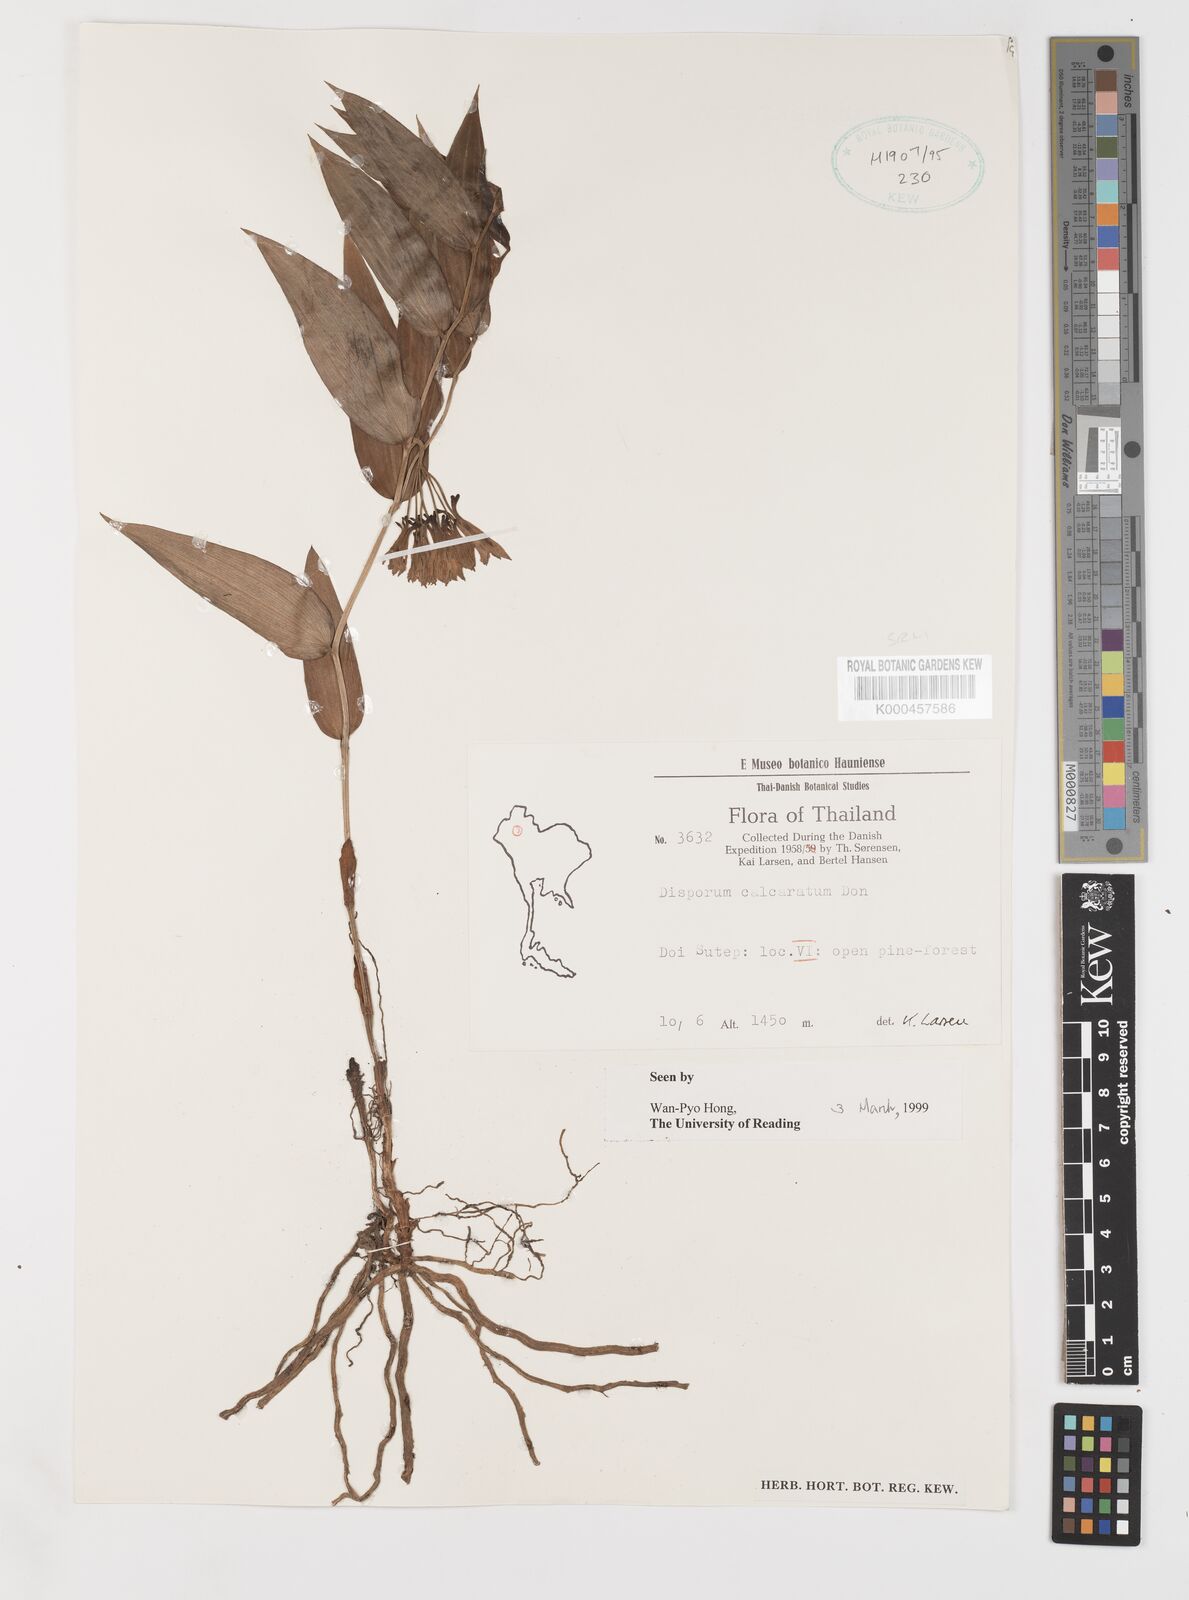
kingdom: Plantae
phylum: Tracheophyta
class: Liliopsida
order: Liliales
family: Colchicaceae
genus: Disporum
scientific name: Disporum calcaratum
